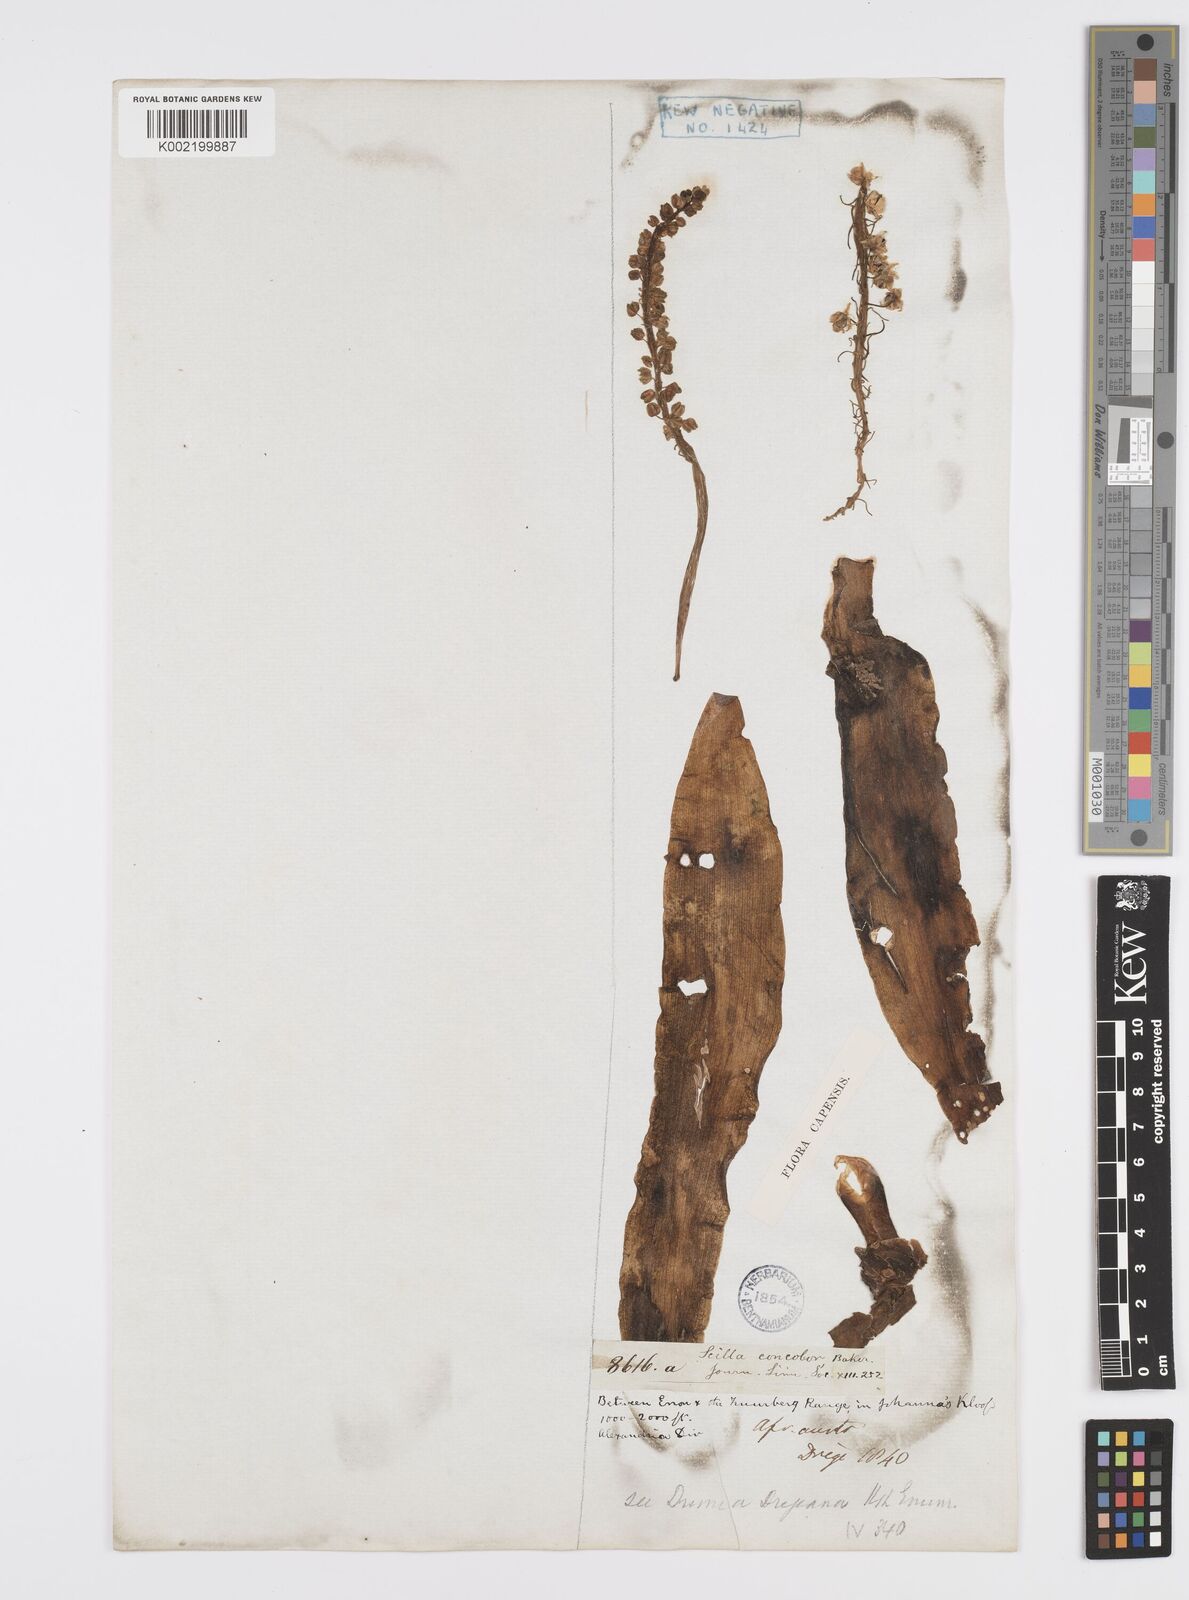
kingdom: Plantae
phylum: Tracheophyta
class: Liliopsida
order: Asparagales
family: Asparagaceae
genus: Ledebouria
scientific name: Ledebouria nitida
